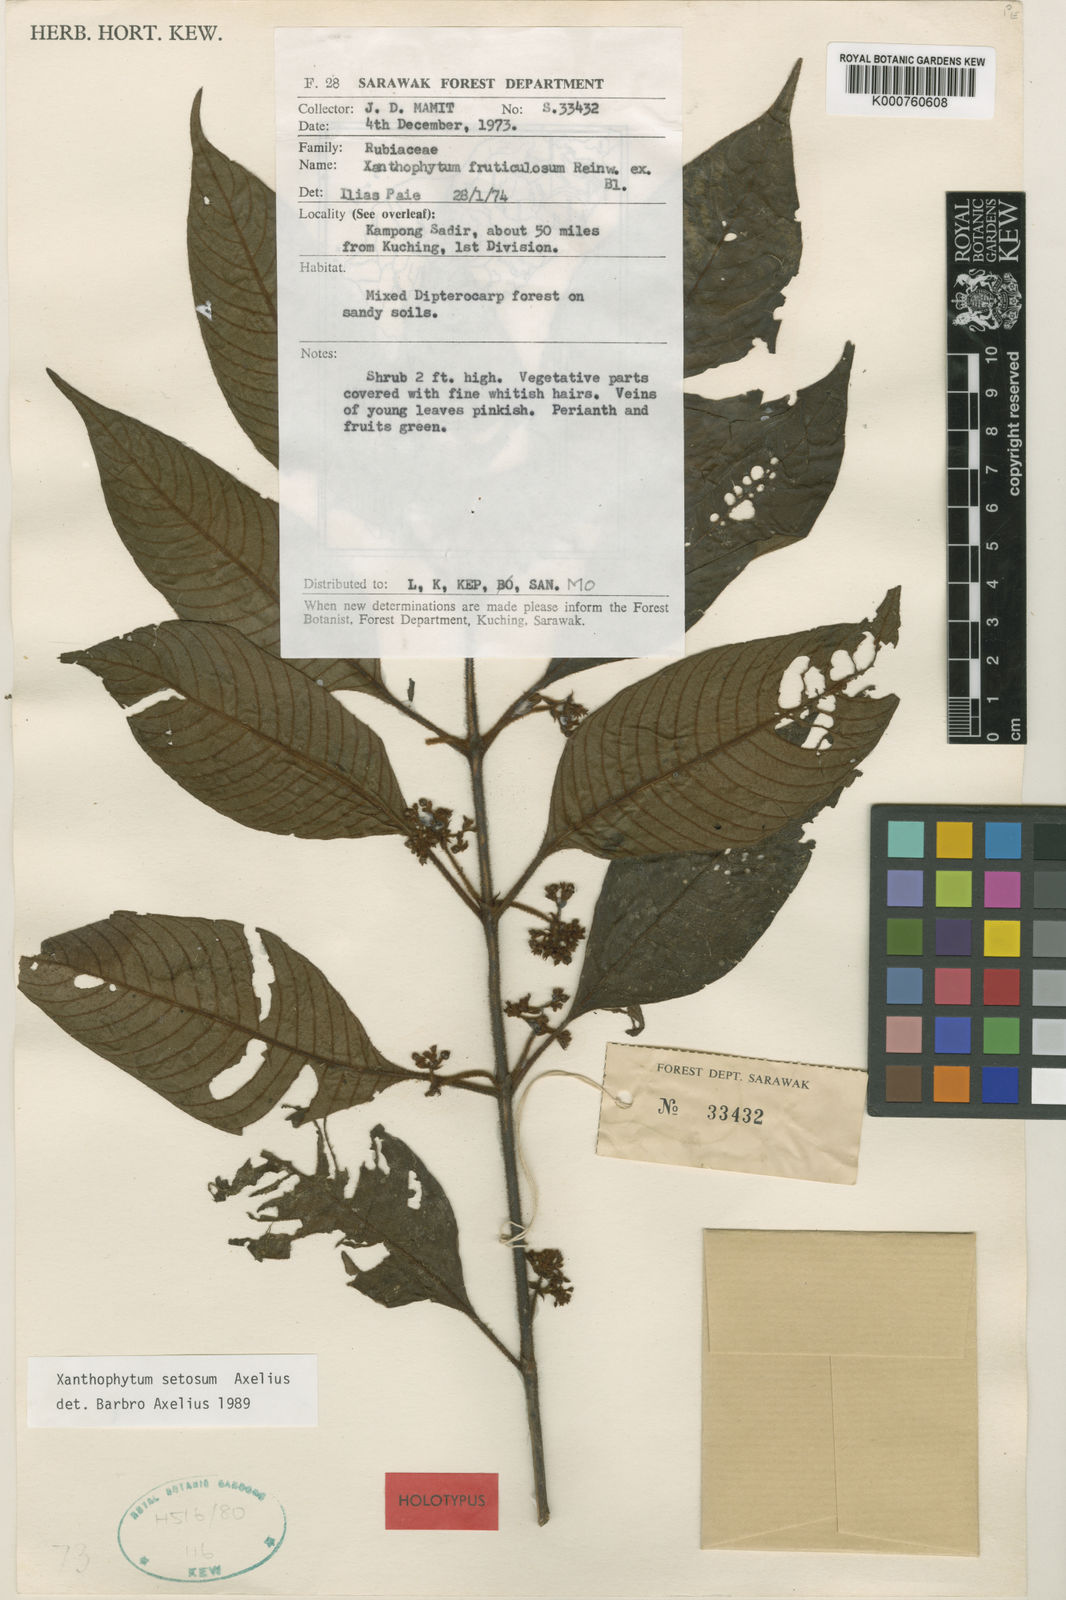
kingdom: Plantae
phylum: Tracheophyta
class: Magnoliopsida
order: Gentianales
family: Rubiaceae
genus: Xanthophytum
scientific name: Xanthophytum setosum
